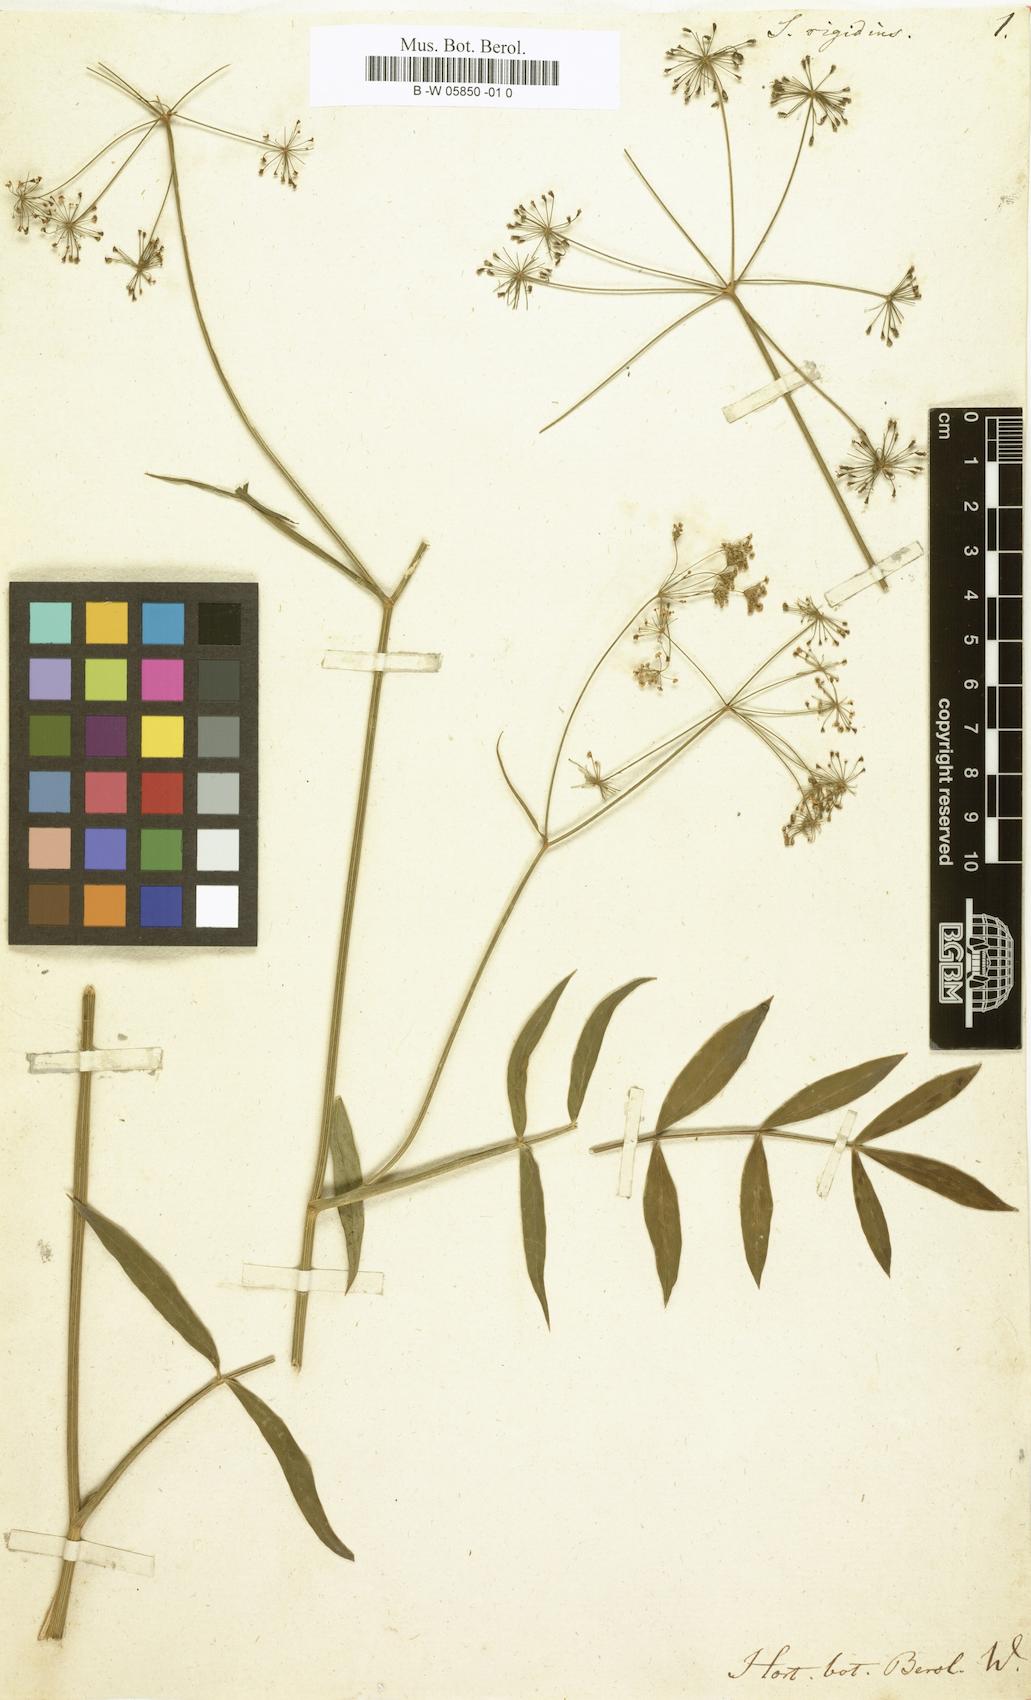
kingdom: Plantae
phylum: Tracheophyta
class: Magnoliopsida
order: Apiales
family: Apiaceae
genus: Oxypolis
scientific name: Oxypolis rigidior
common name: Cowbane
